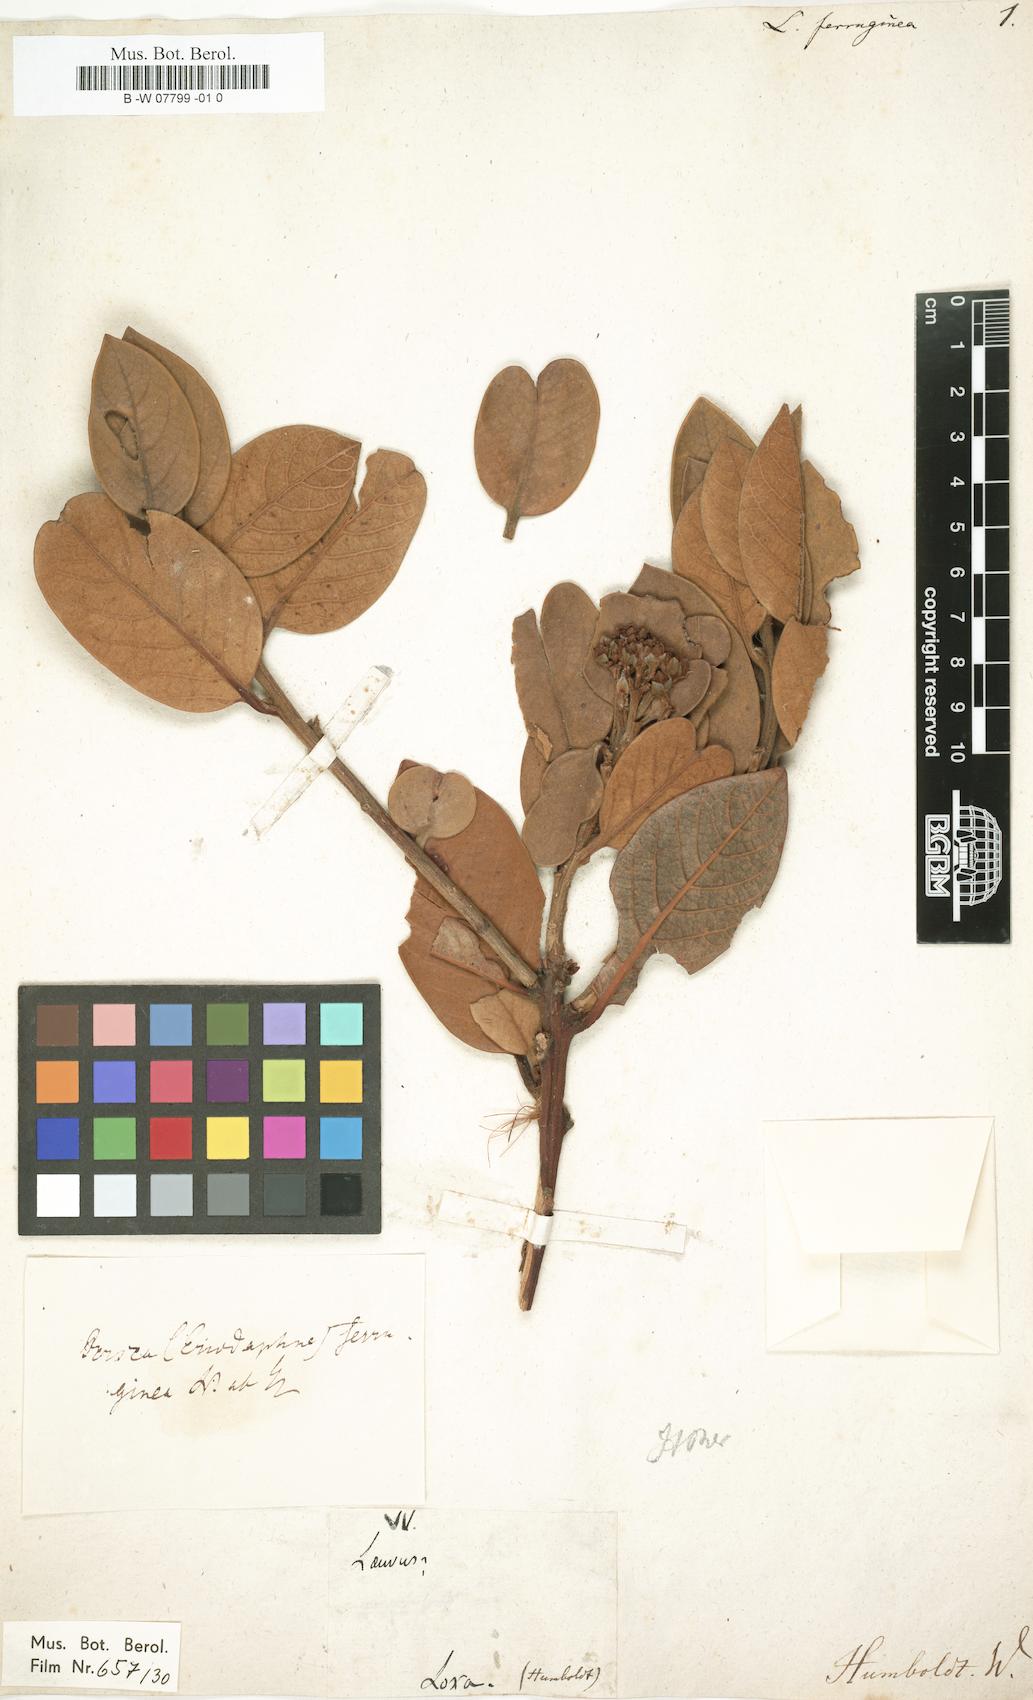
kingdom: Plantae
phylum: Tracheophyta
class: Magnoliopsida
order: Laurales
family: Lauraceae
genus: Persea
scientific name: Persea ruizii
